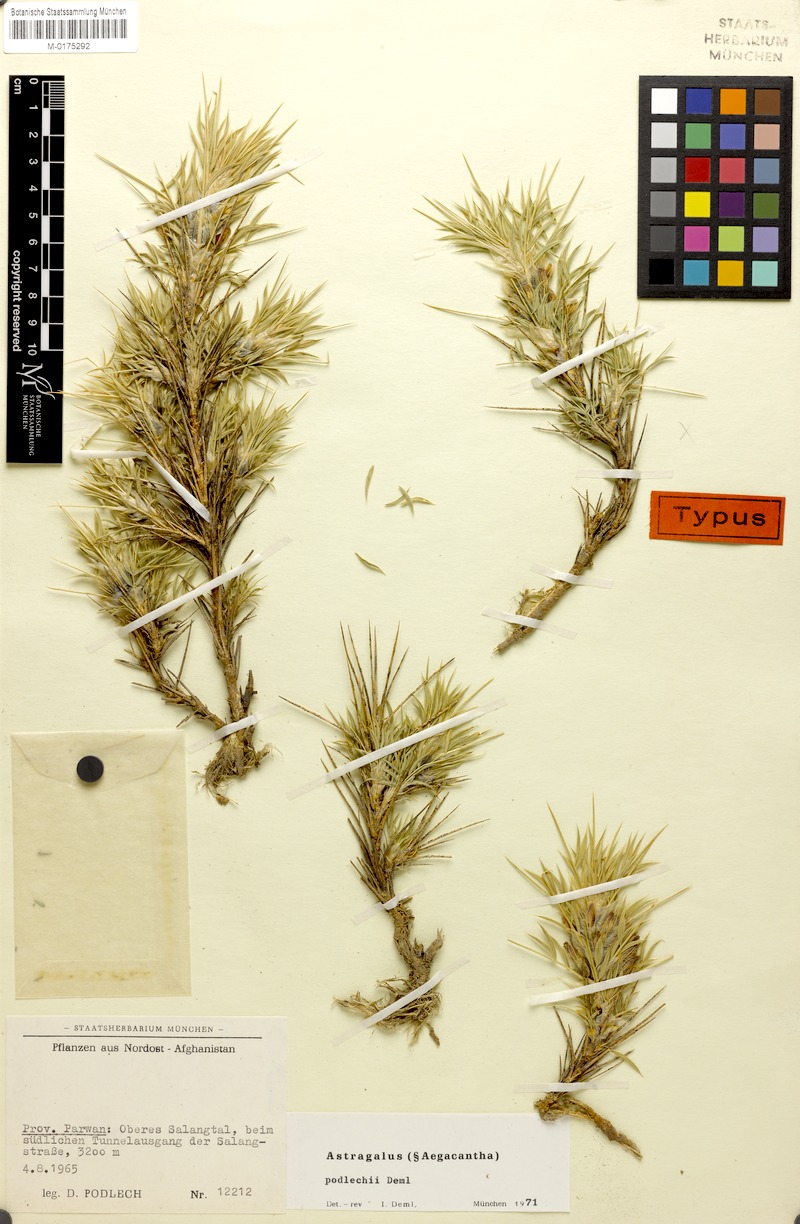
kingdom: Plantae
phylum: Tracheophyta
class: Magnoliopsida
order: Fabales
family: Fabaceae
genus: Astragalus
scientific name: Astragalus podlechii
